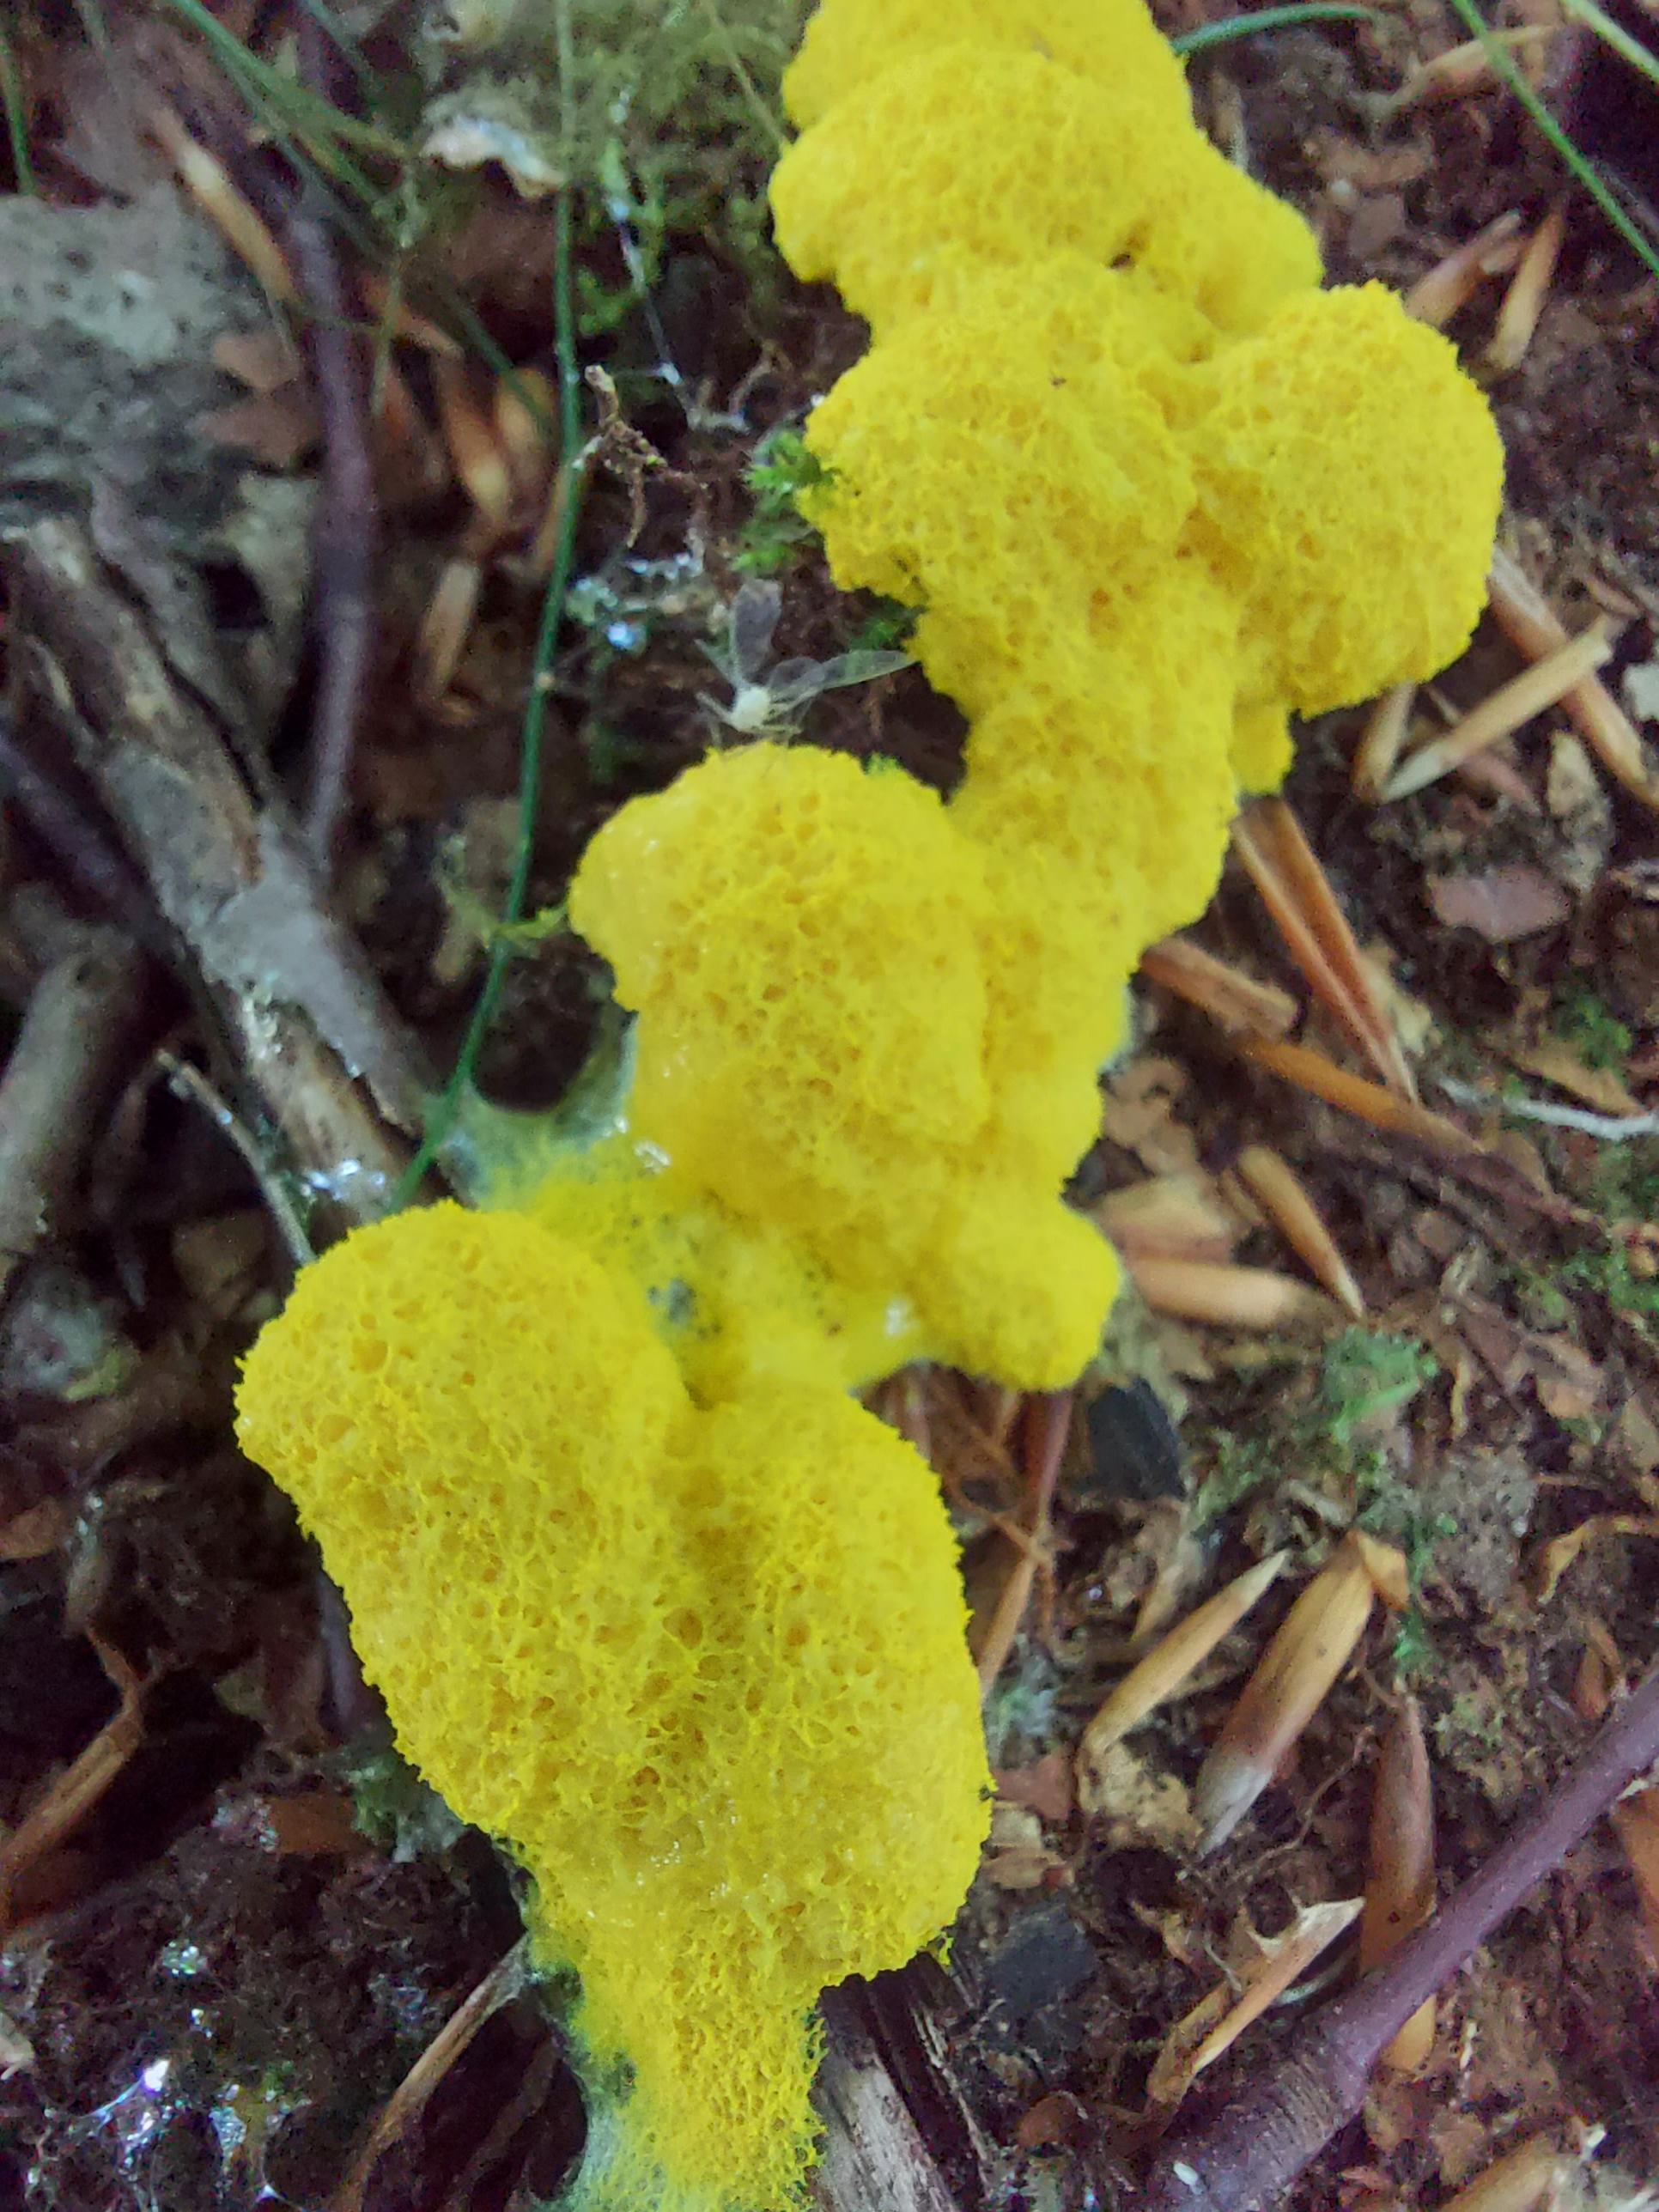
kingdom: Protozoa
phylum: Mycetozoa
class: Myxomycetes
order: Physarales
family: Physaraceae
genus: Fuligo
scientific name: Fuligo septica
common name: gul troldsmør
